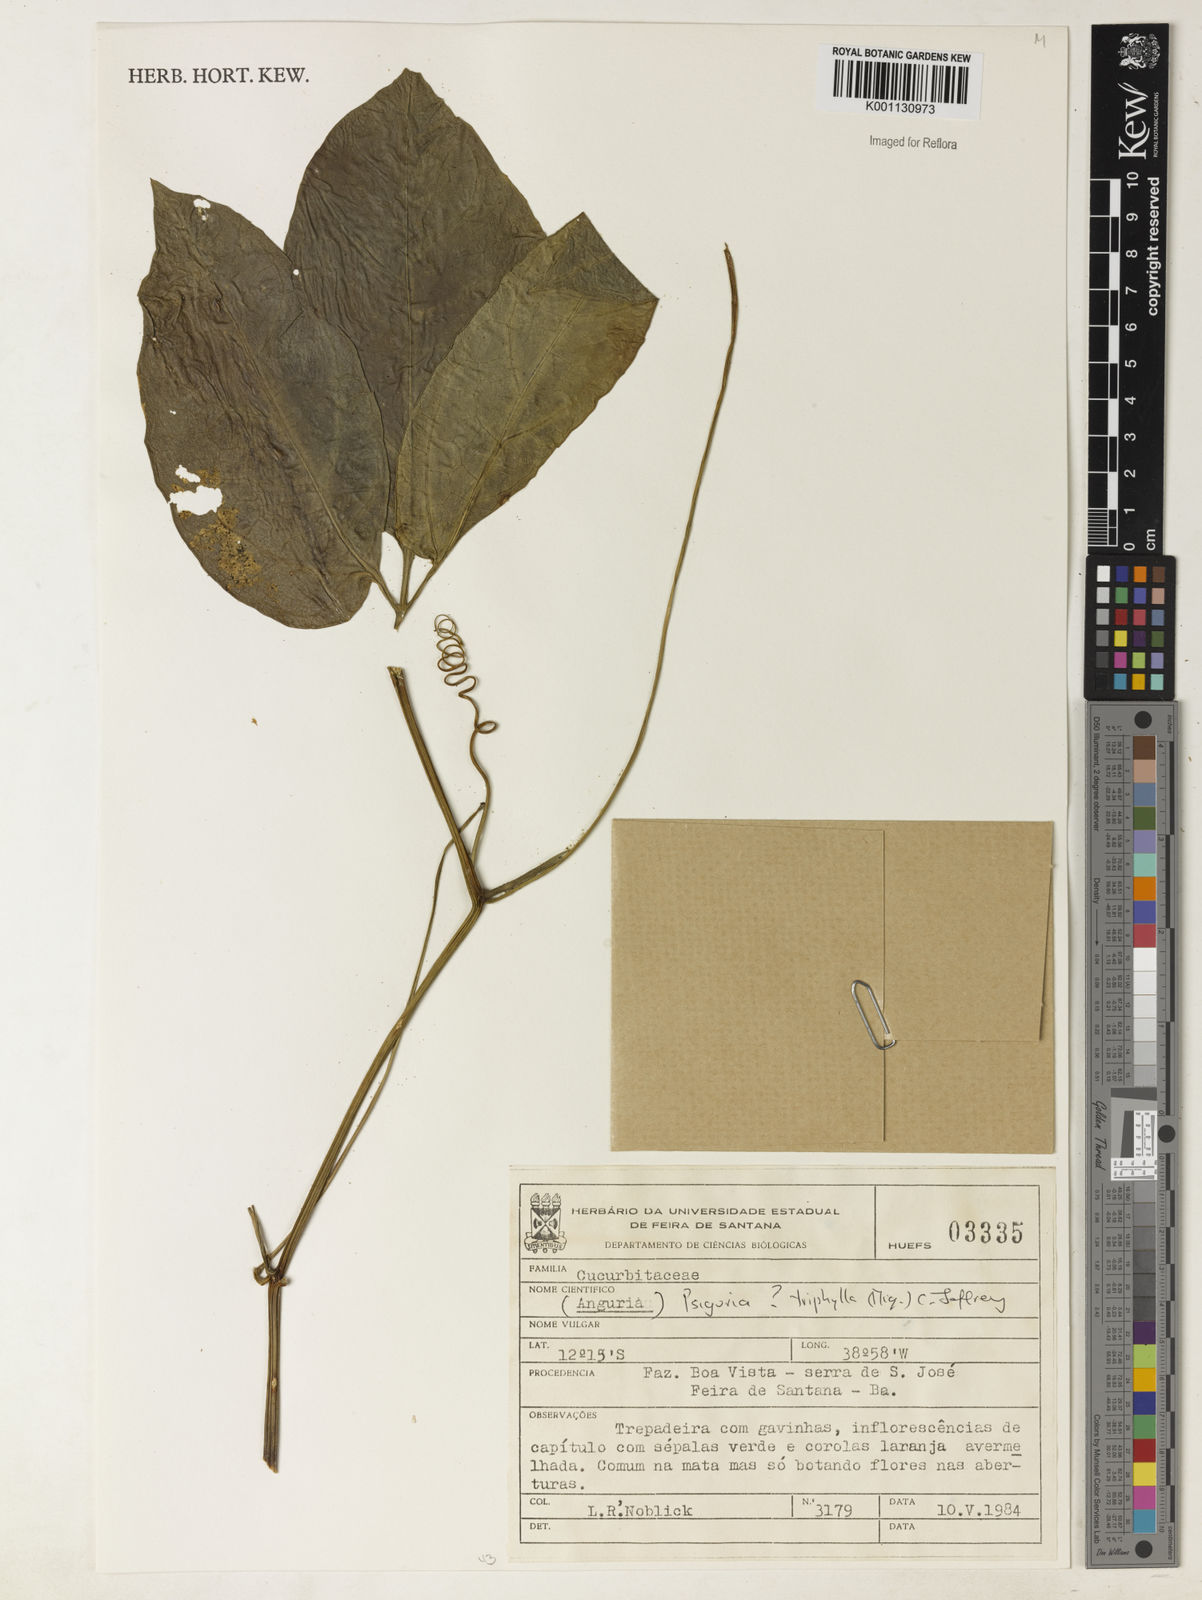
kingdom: Plantae
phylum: Tracheophyta
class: Magnoliopsida
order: Cucurbitales
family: Cucurbitaceae
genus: Psiguria
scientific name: Psiguria triphylla
